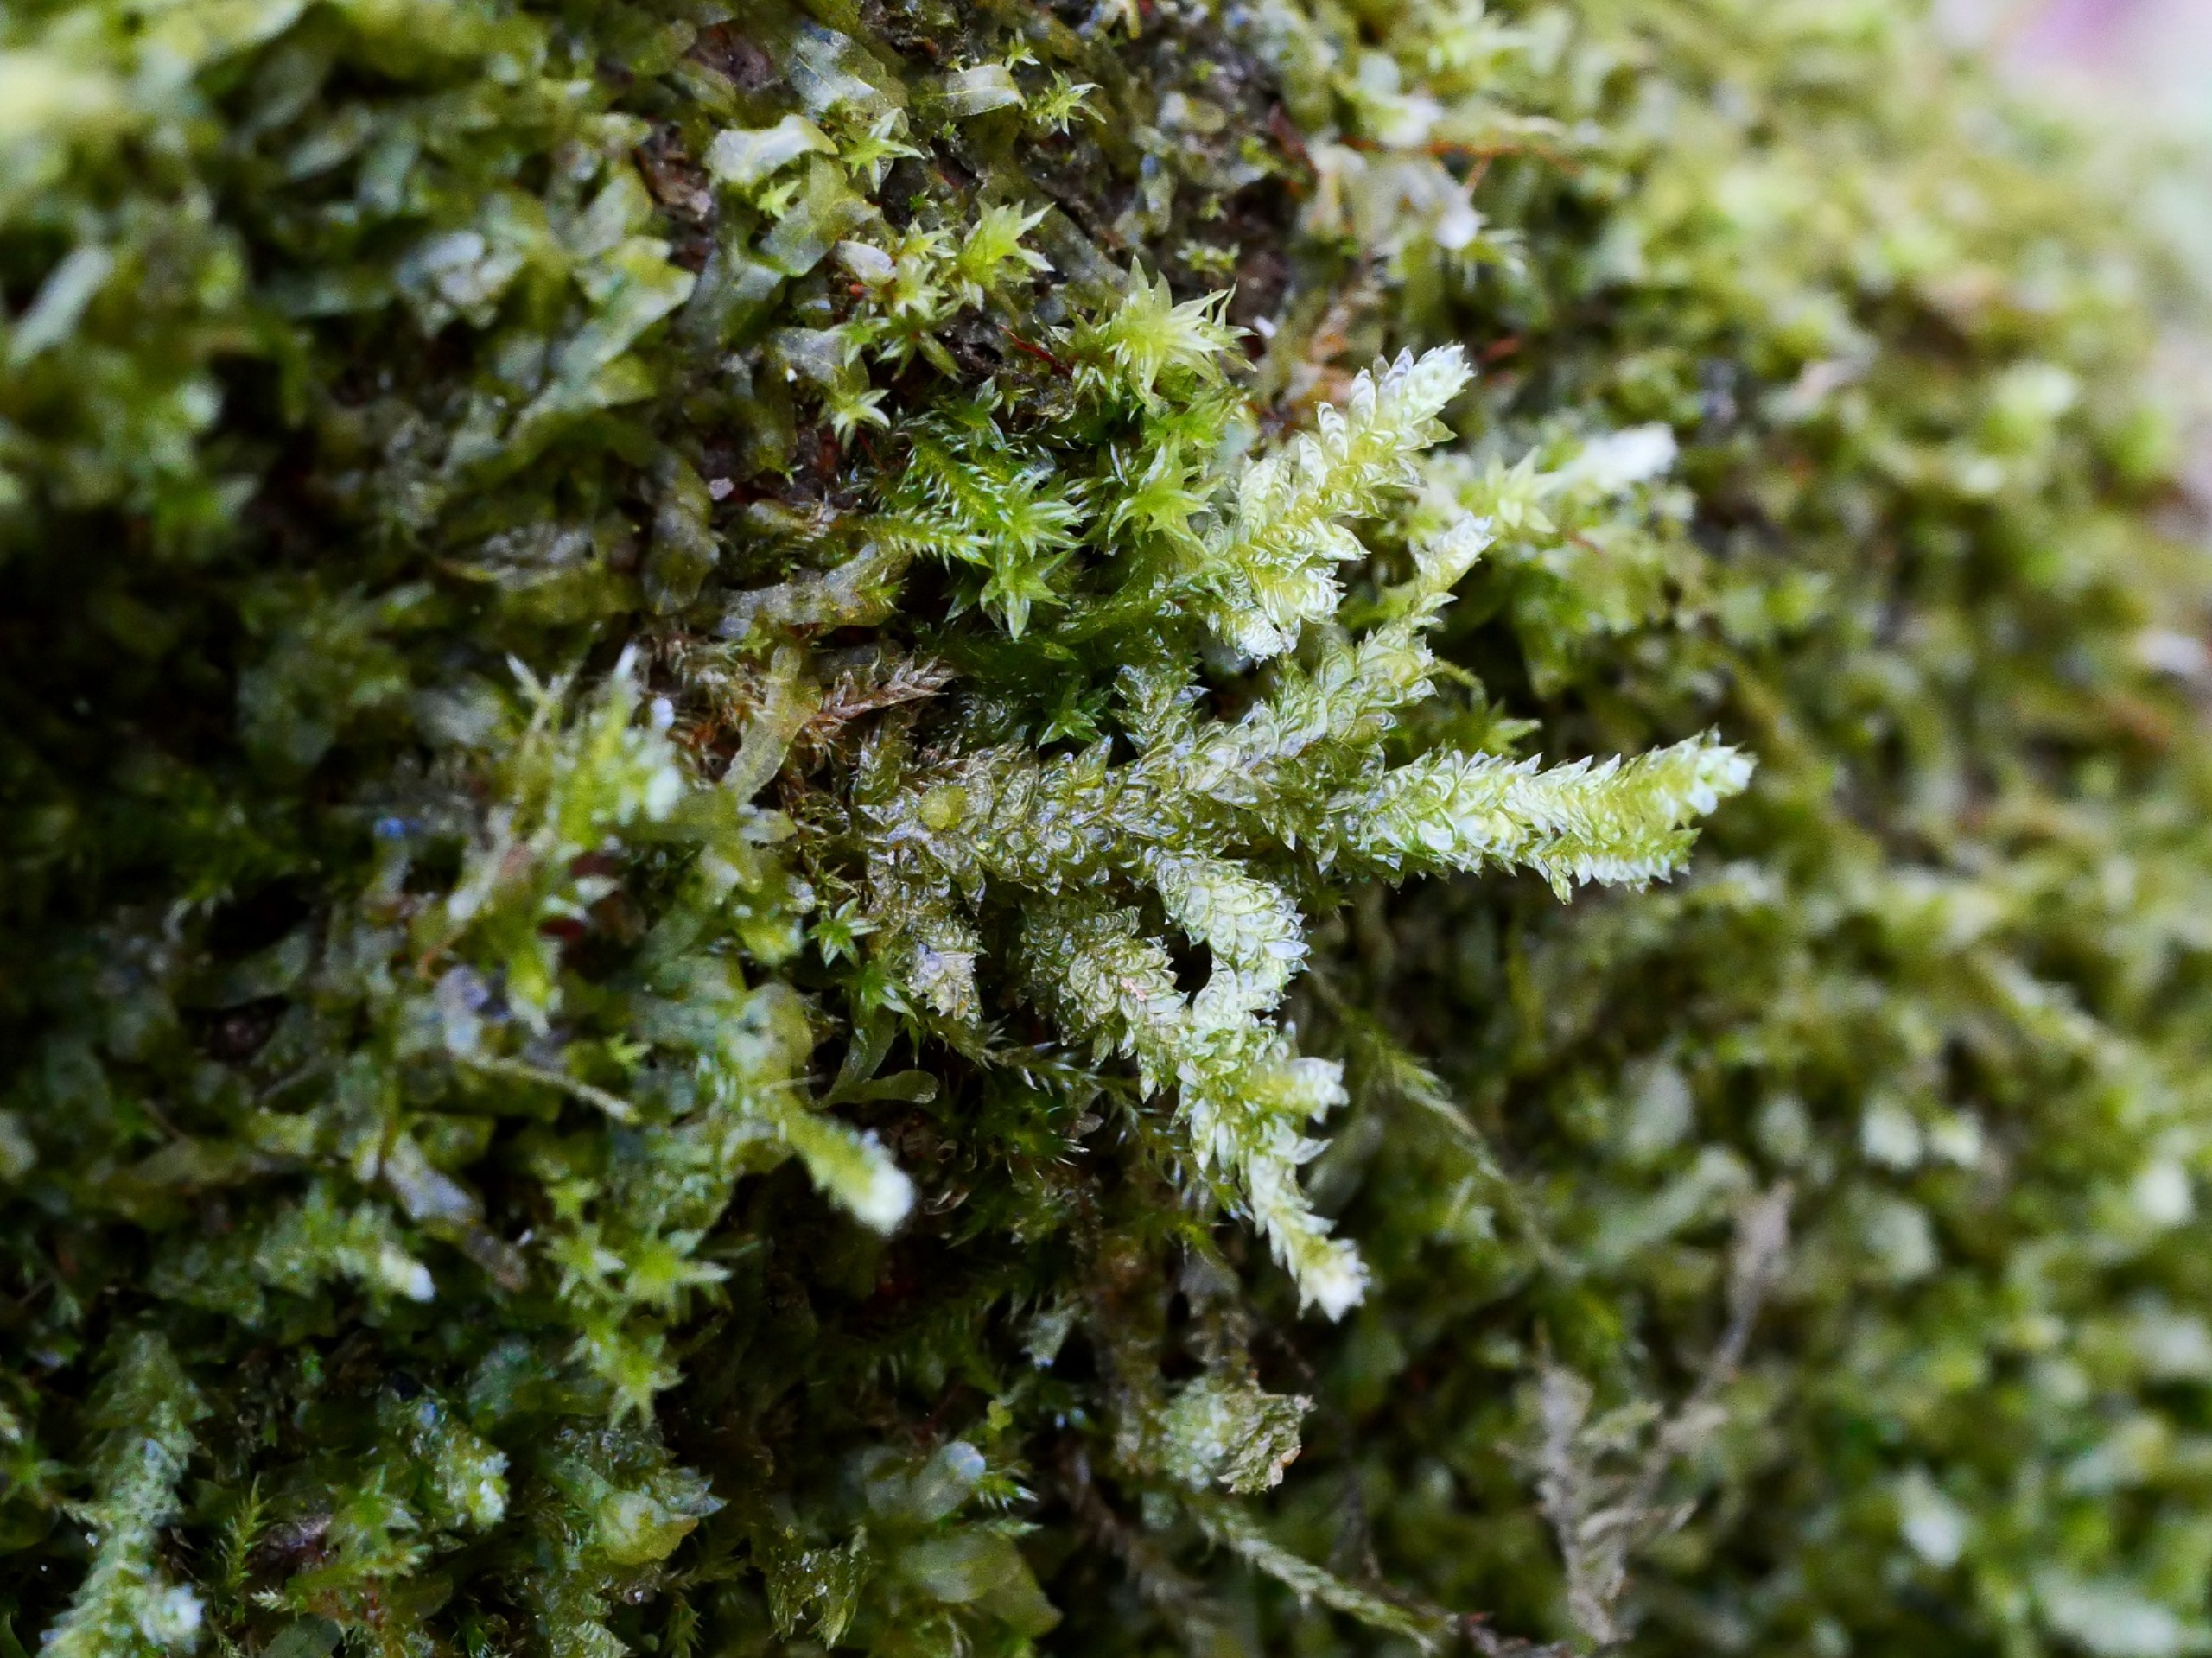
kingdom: Plantae
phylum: Bryophyta
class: Bryopsida
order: Hypnales
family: Neckeraceae
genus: Neckera
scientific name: Neckera pumila
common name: Lav fladmos
